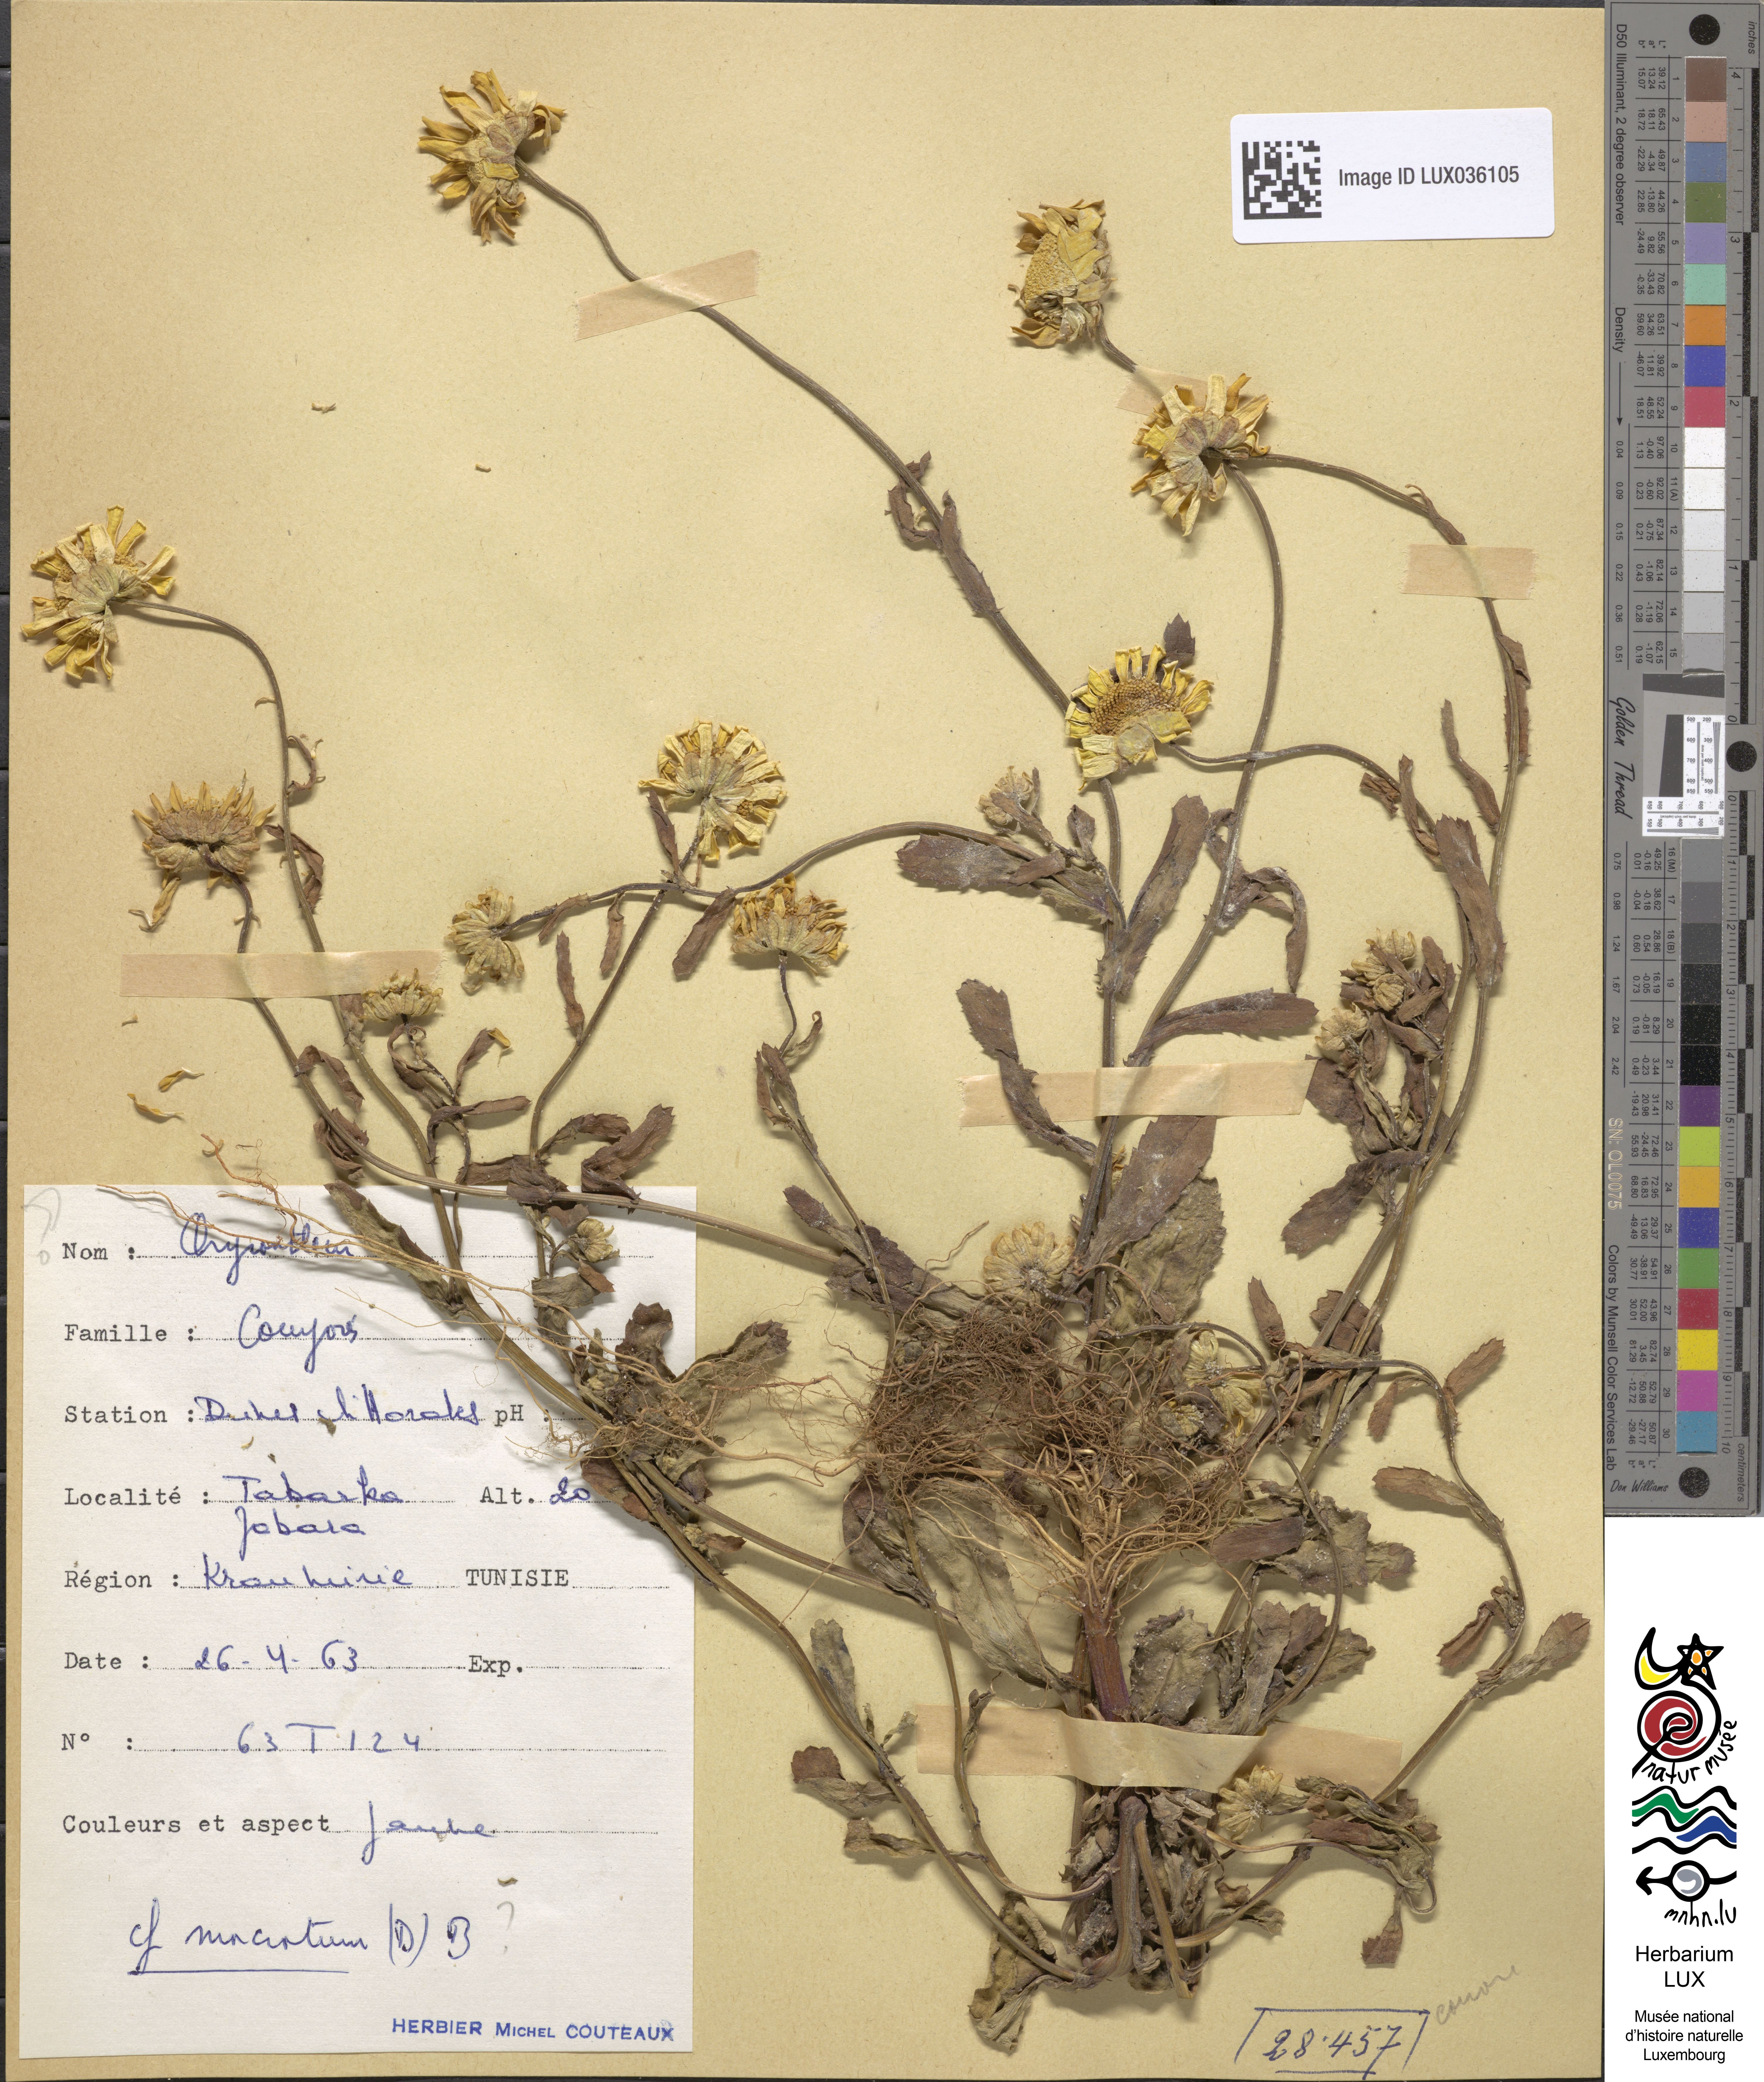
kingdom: Plantae
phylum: Tracheophyta
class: Magnoliopsida
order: Asterales
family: Asteraceae
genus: Glossopappus
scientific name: Glossopappus macrotus
